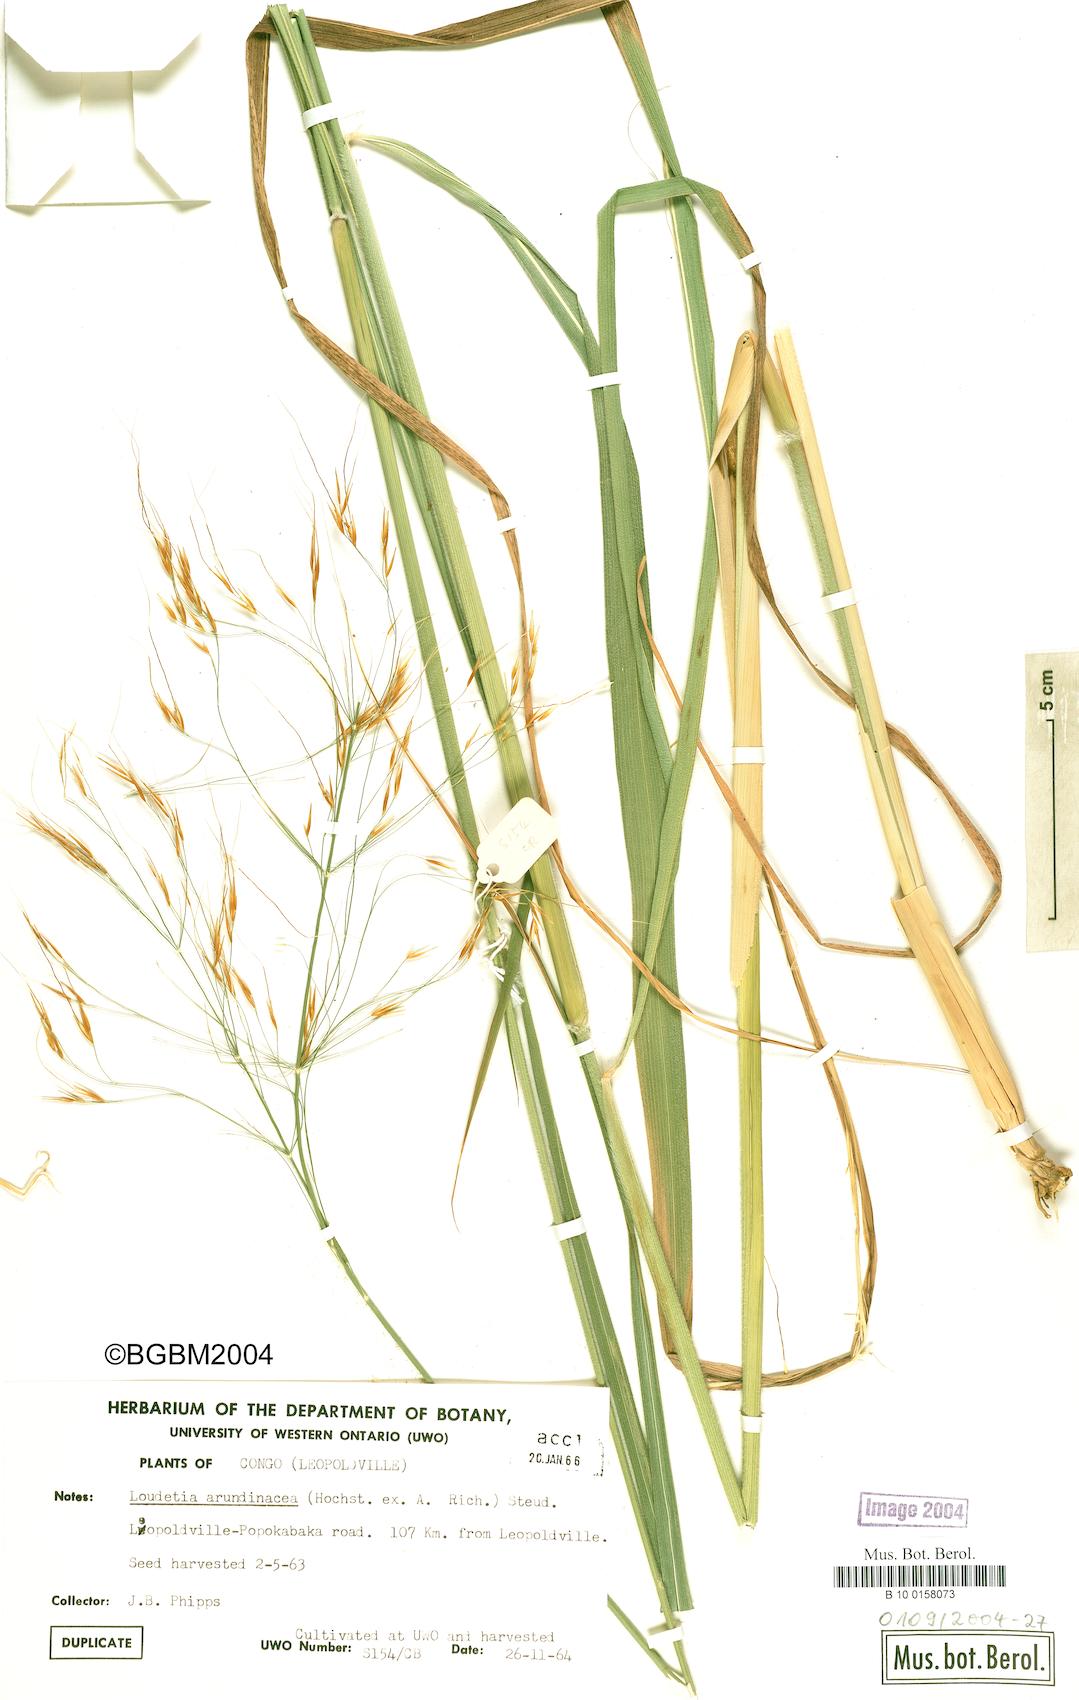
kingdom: Plantae
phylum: Tracheophyta
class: Liliopsida
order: Poales
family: Poaceae
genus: Loudetia
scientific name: Loudetia arundinacea
